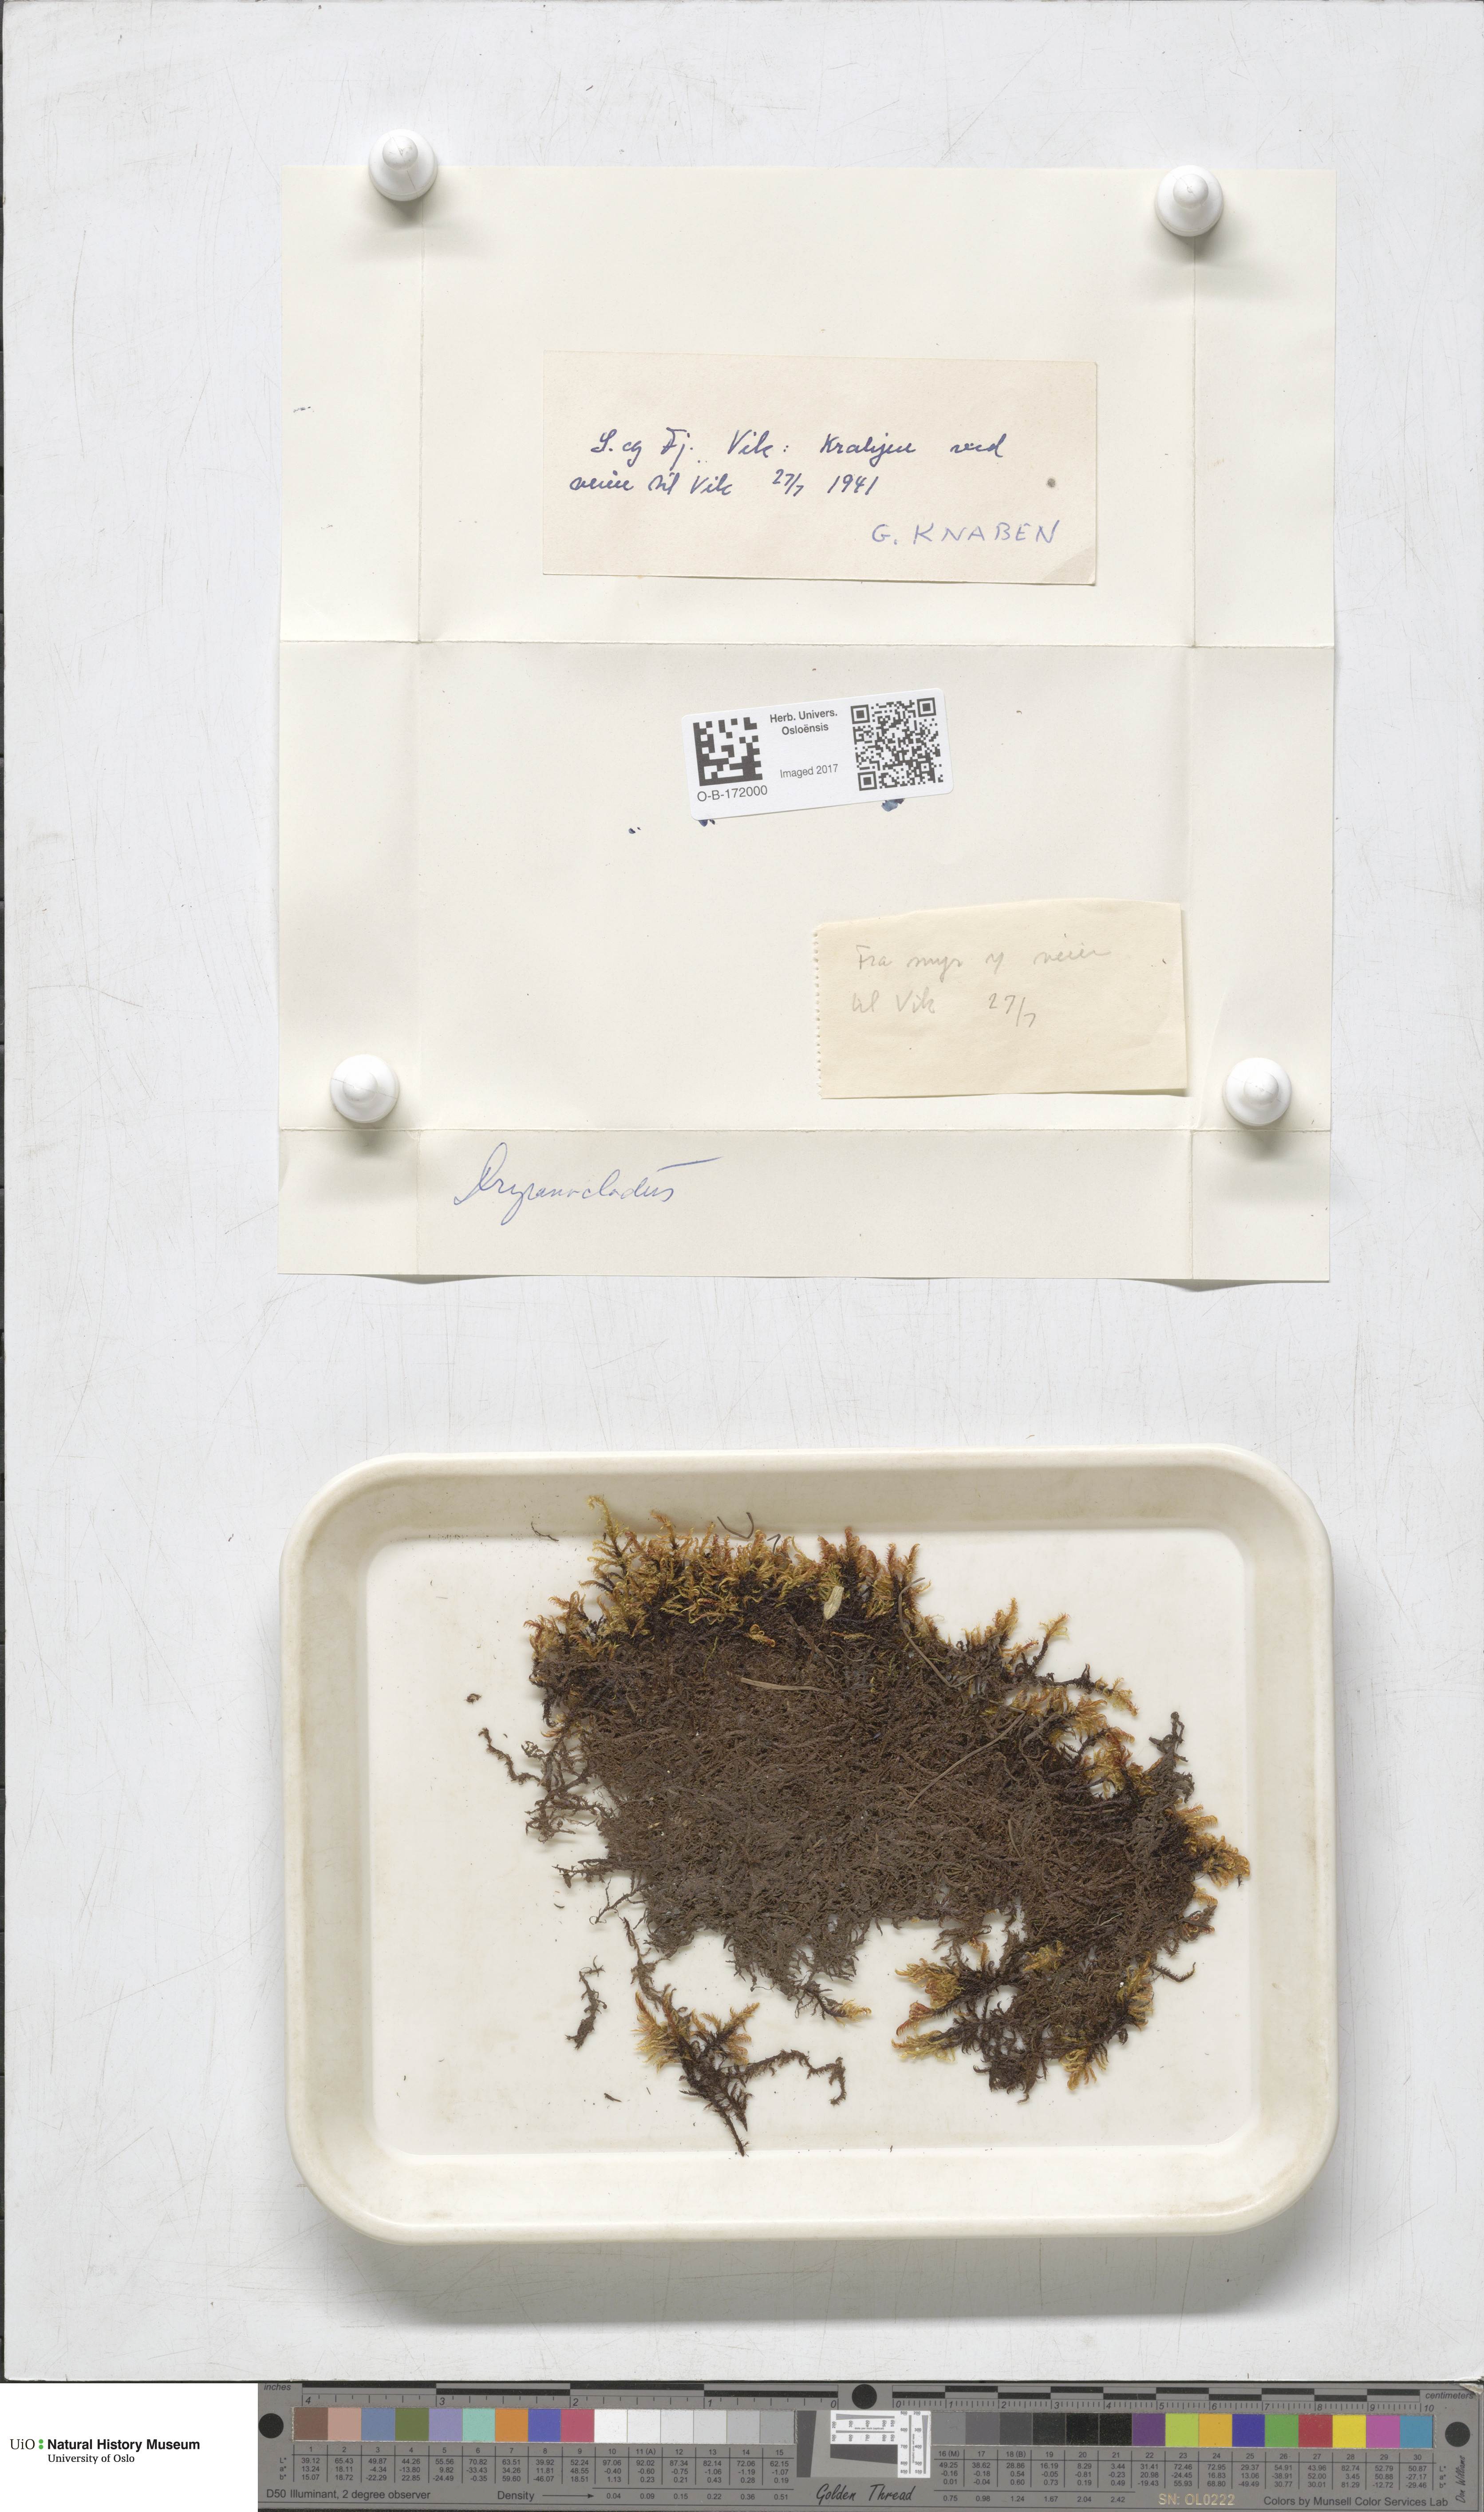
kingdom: Plantae
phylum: Bryophyta
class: Bryopsida
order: Hypnales
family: Amblystegiaceae
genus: Drepanocladus
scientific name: Drepanocladus sordidus
